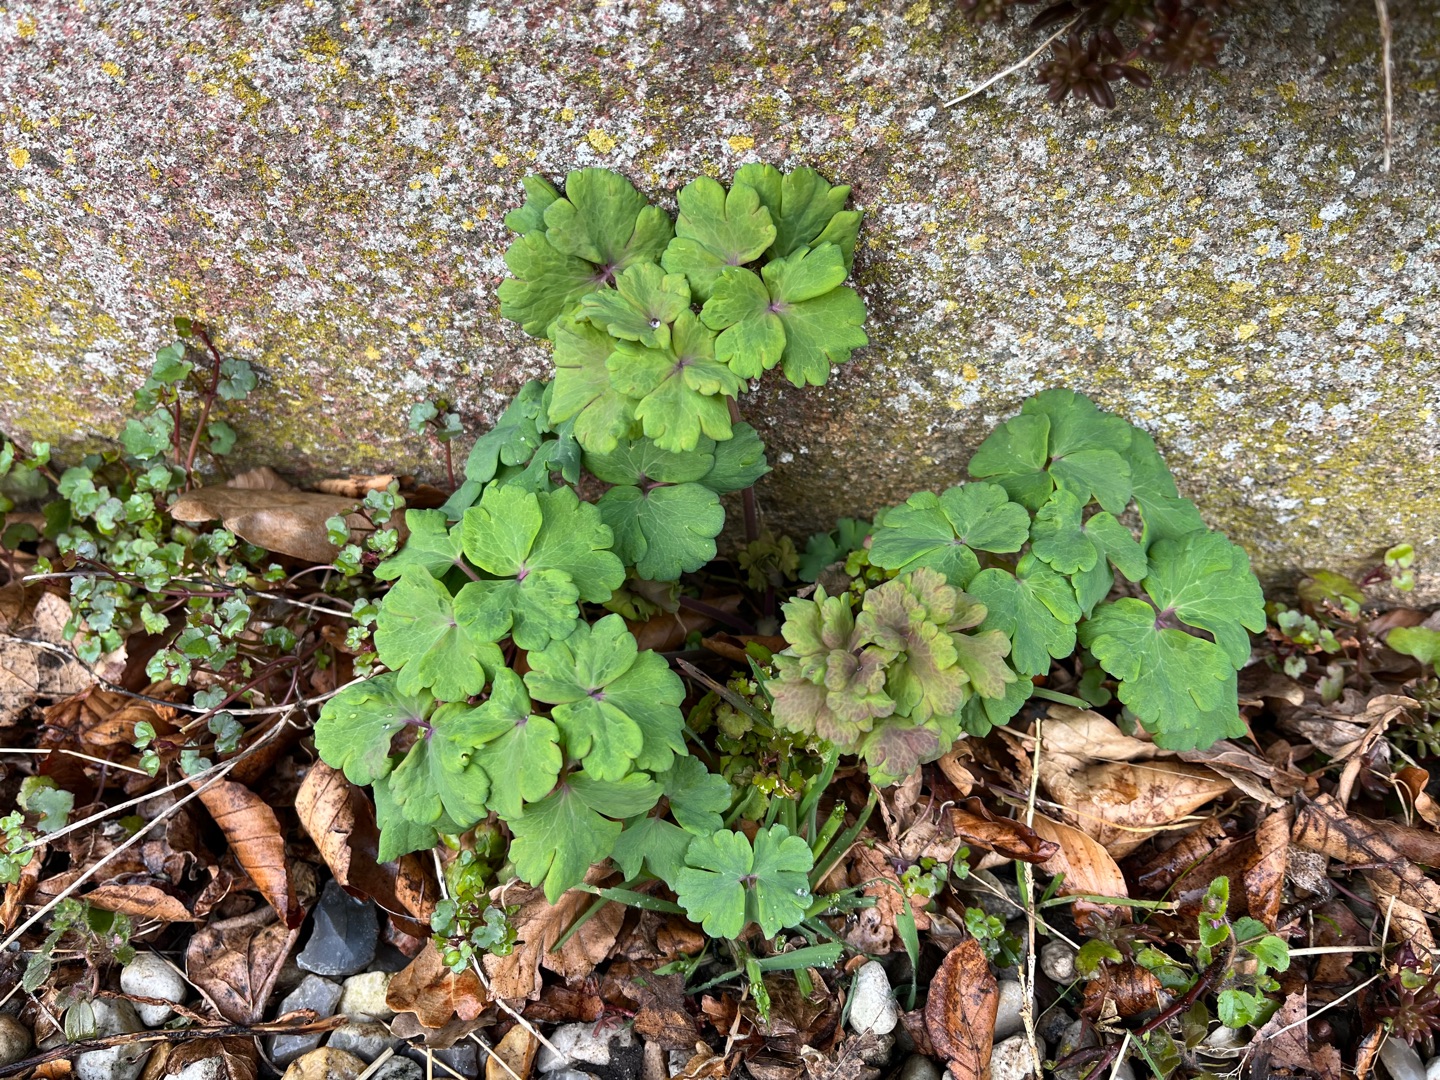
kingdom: Plantae
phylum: Tracheophyta
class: Magnoliopsida
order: Ranunculales
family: Ranunculaceae
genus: Aquilegia
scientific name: Aquilegia vulgaris
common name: Akeleje
